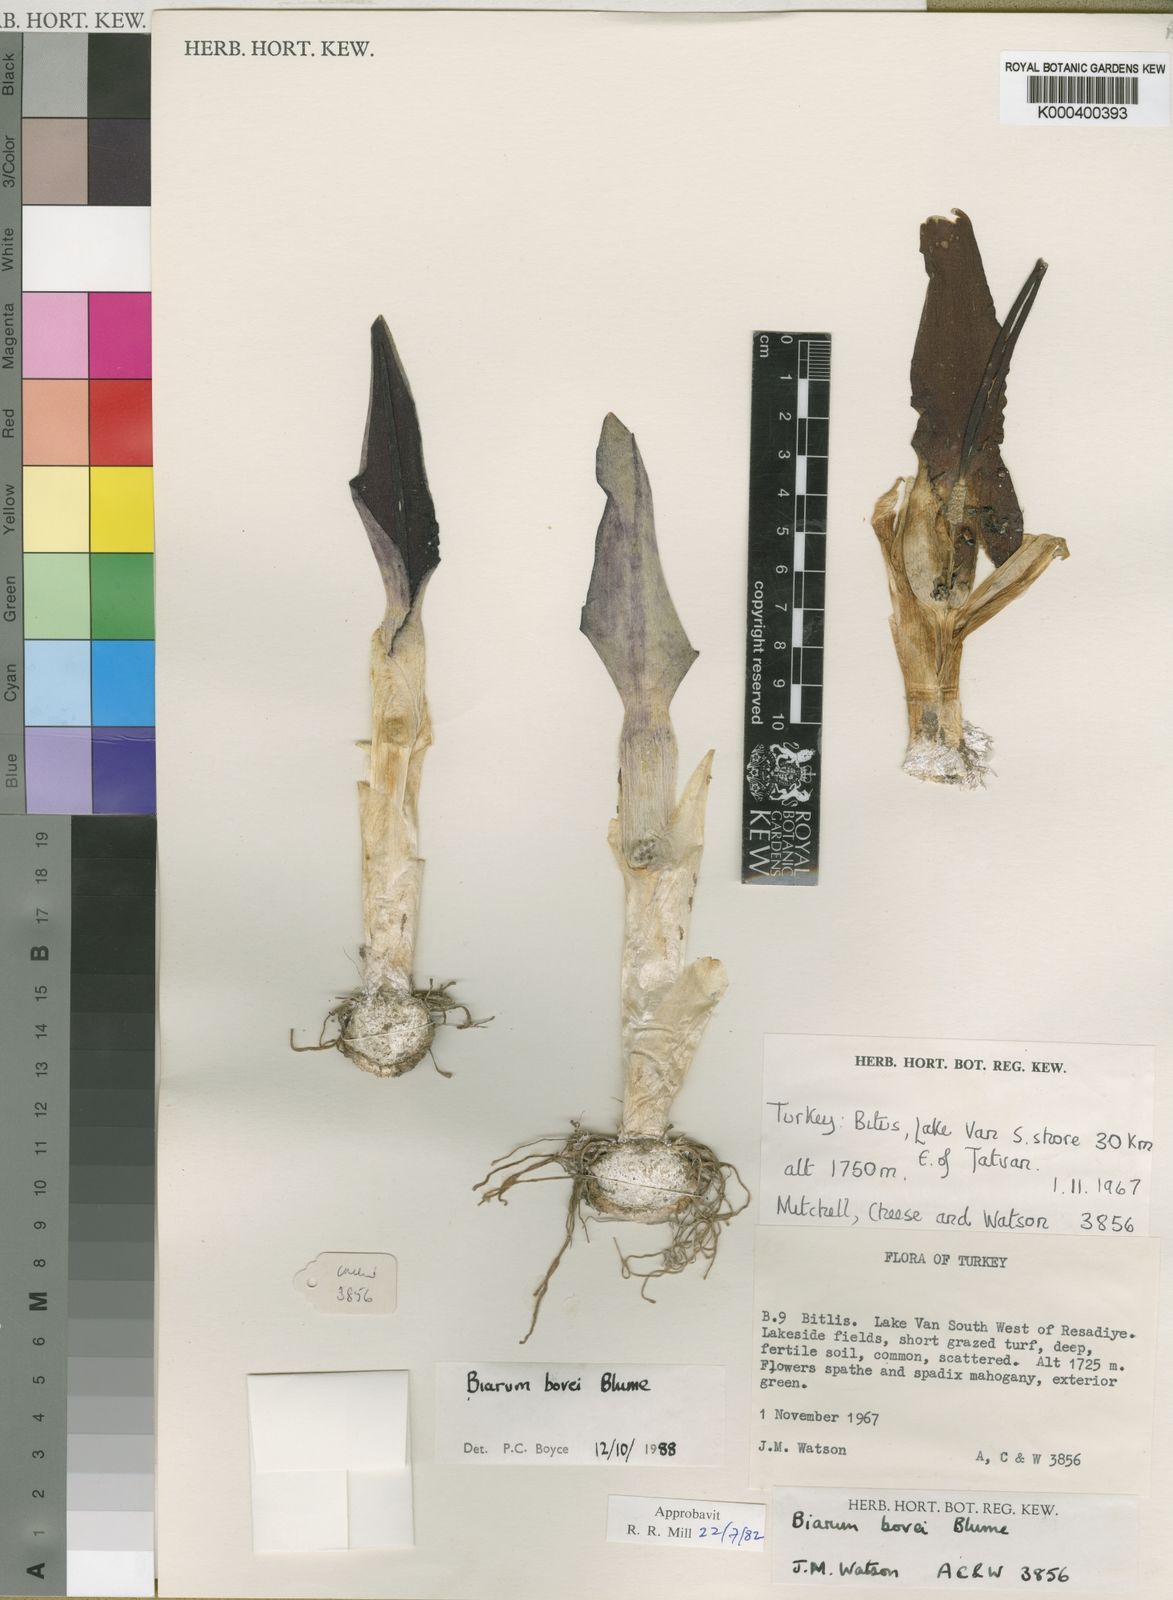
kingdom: Plantae
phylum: Tracheophyta
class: Liliopsida
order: Alismatales
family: Araceae
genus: Biarum
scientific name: Biarum bovei
